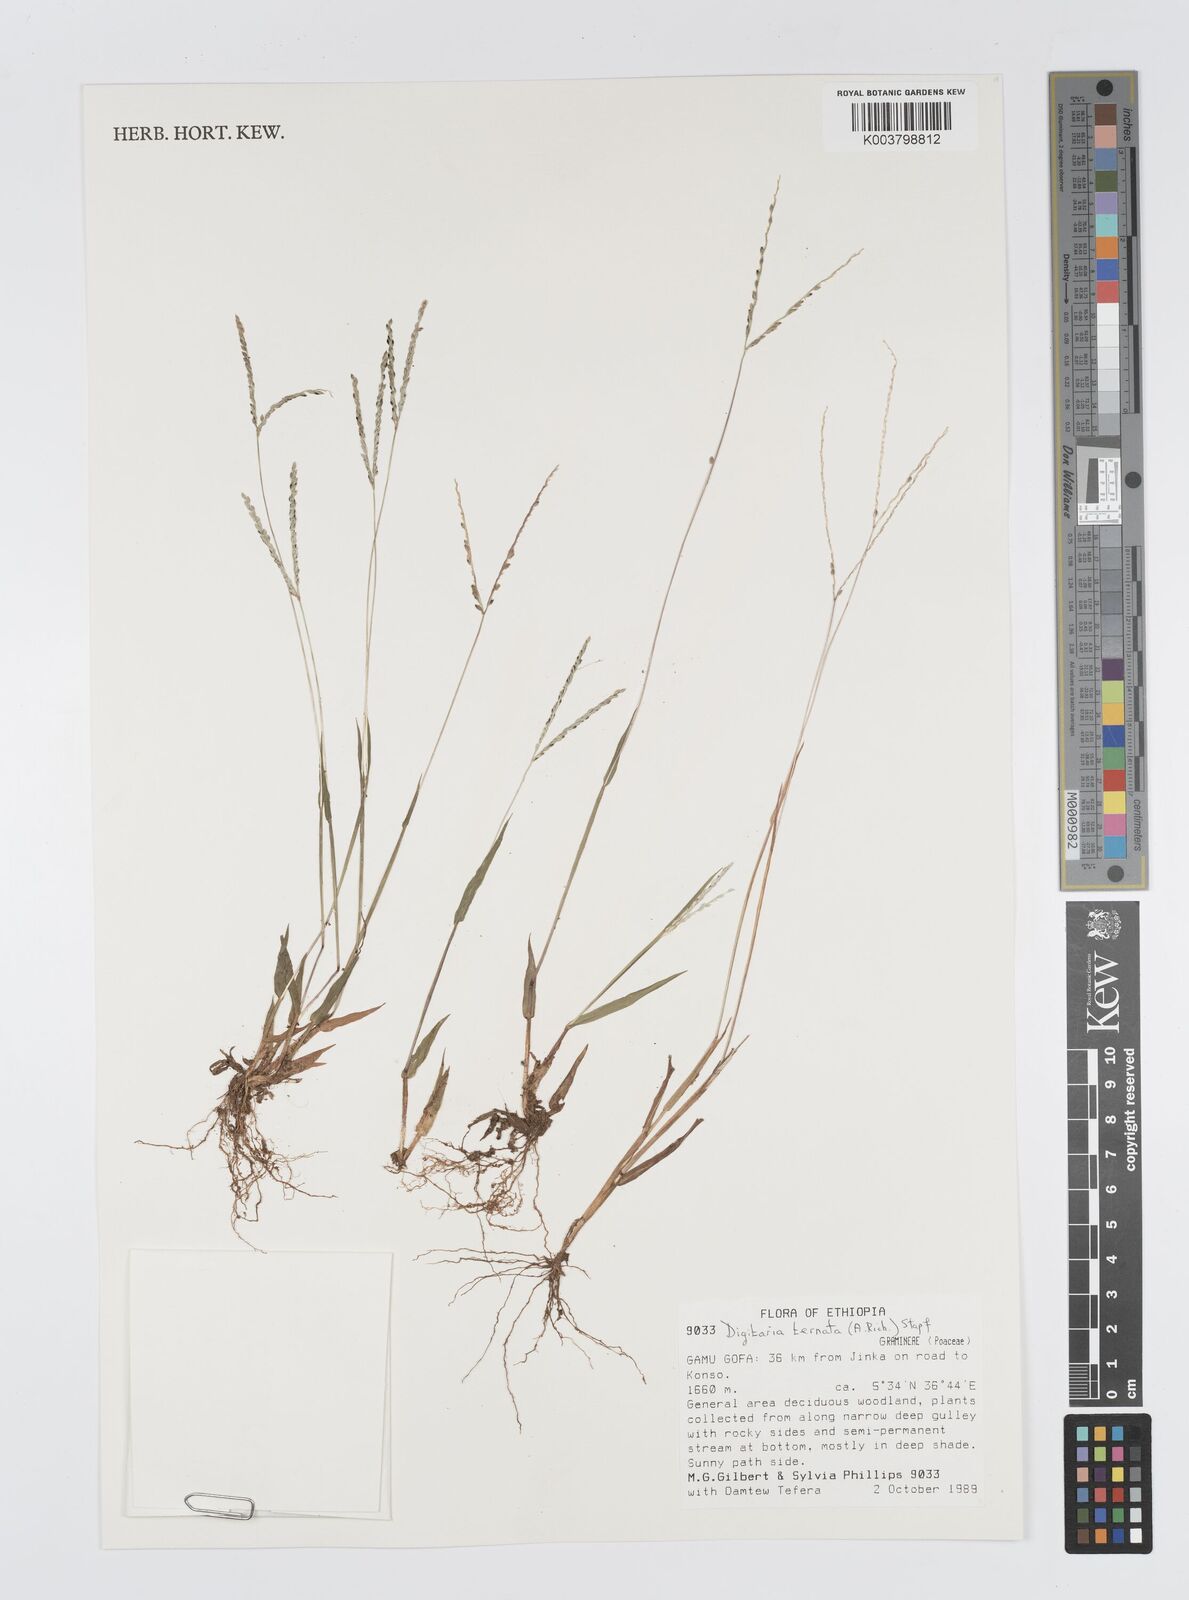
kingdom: Plantae
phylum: Tracheophyta
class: Liliopsida
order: Poales
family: Poaceae
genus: Digitaria
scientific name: Digitaria ternata
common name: Blackseed crabgrass
